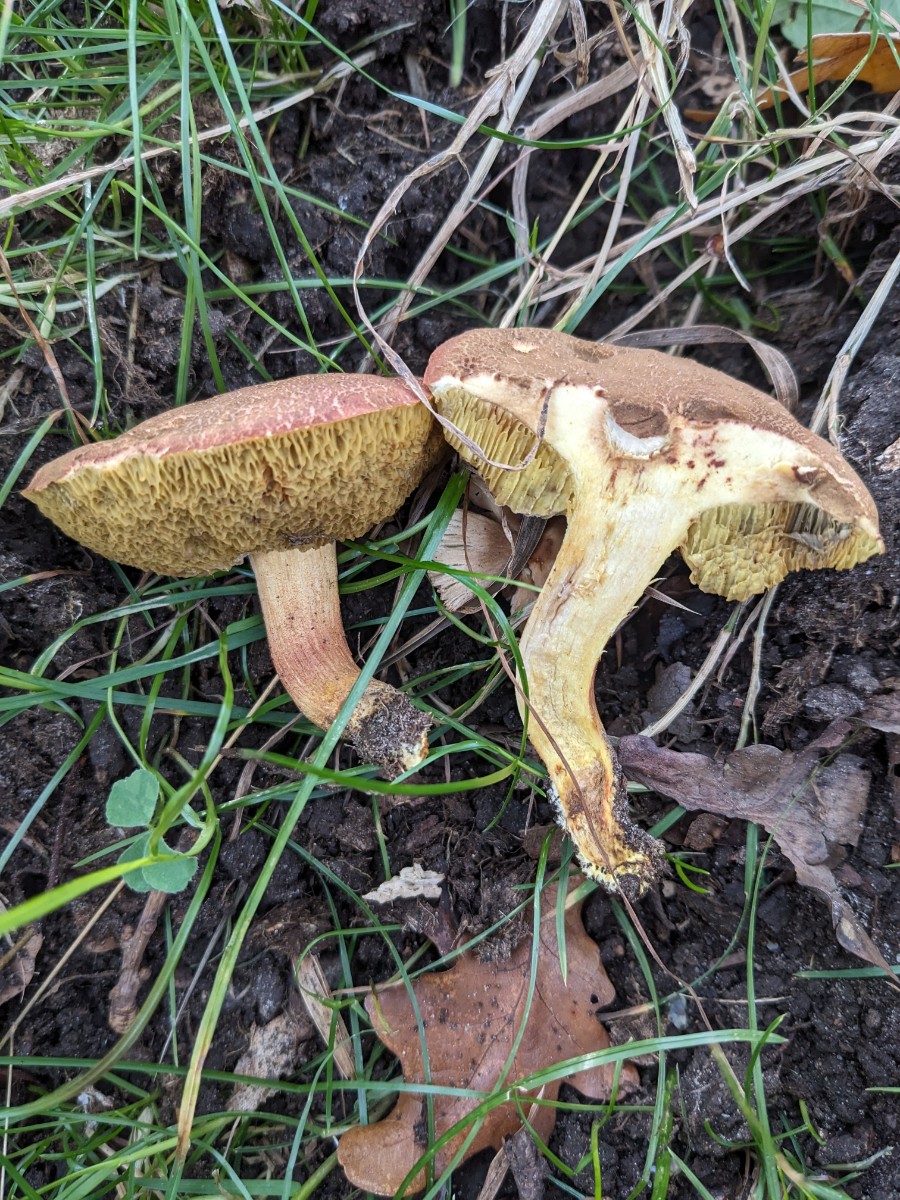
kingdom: Fungi
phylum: Basidiomycota
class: Agaricomycetes
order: Boletales
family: Boletaceae
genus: Hortiboletus
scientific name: Hortiboletus engelii
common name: fersken-rørhat
